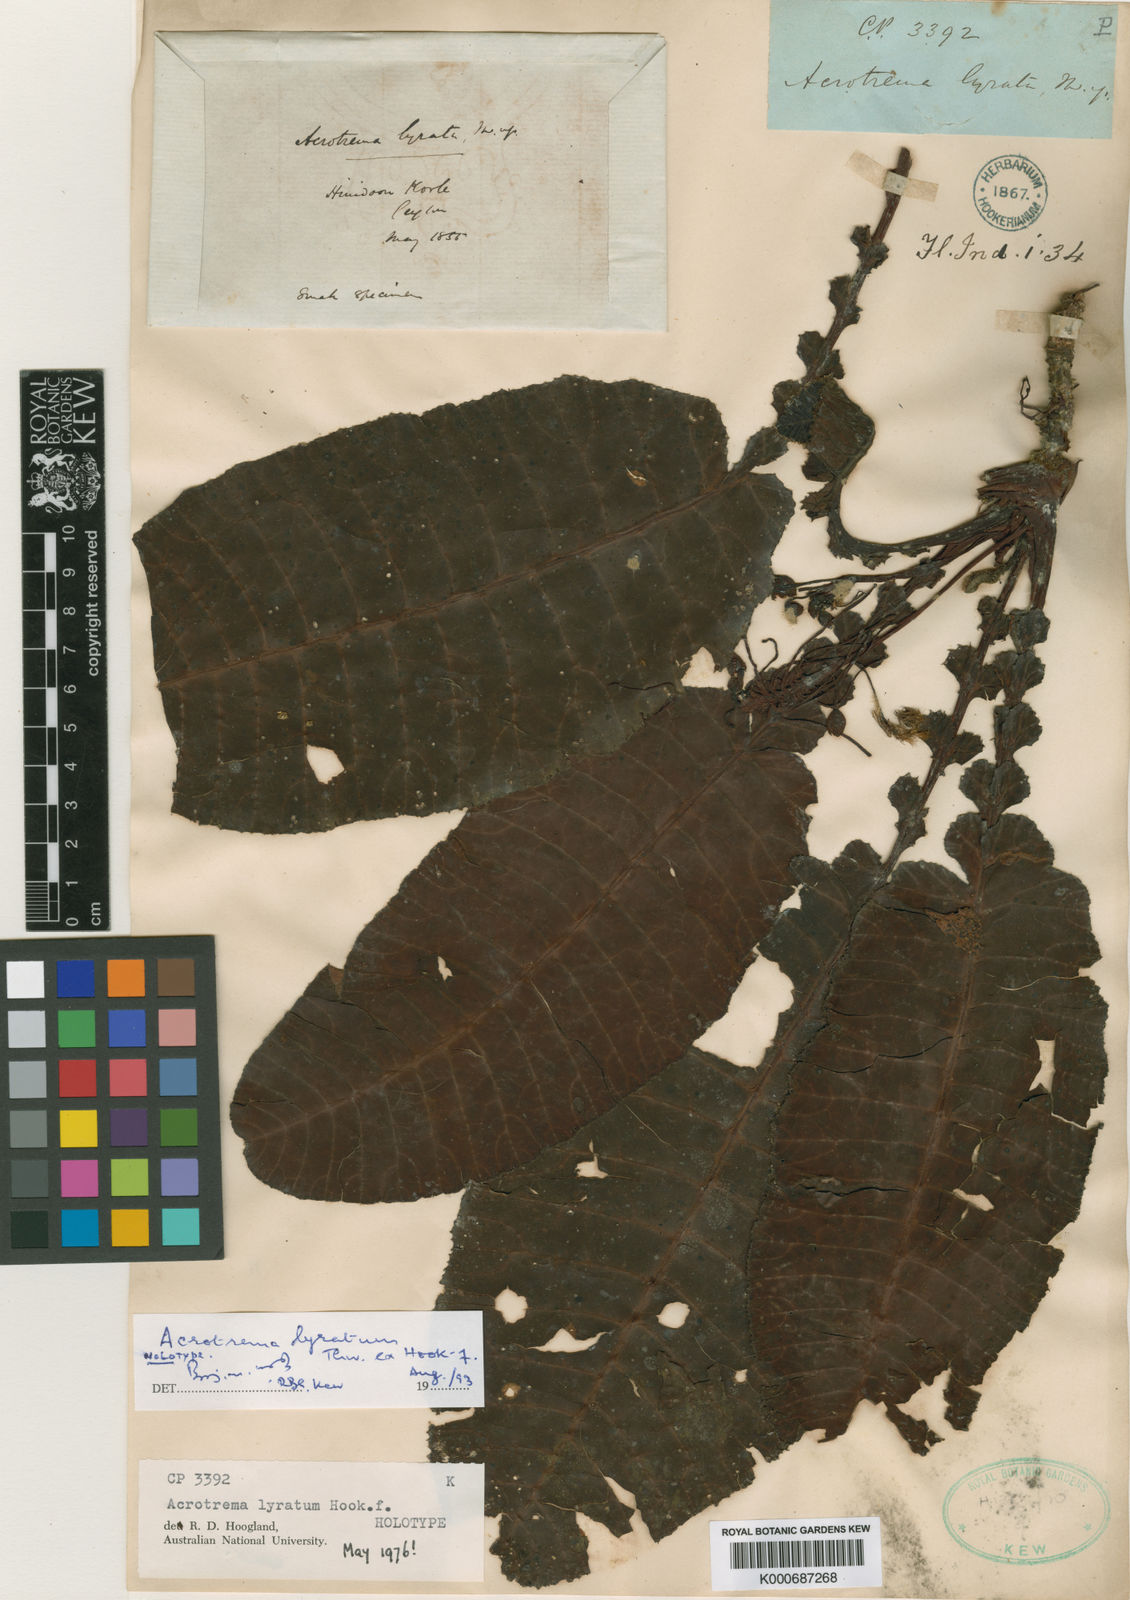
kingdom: Plantae
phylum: Tracheophyta
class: Magnoliopsida
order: Dilleniales
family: Dilleniaceae
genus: Acrotrema
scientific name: Acrotrema
